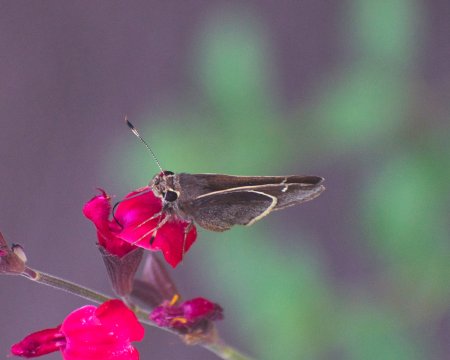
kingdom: Animalia
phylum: Arthropoda
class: Insecta
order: Lepidoptera
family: Hesperiidae
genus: Atrytonopsis
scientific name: Atrytonopsis lunus
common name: Moon-marked Skipper
